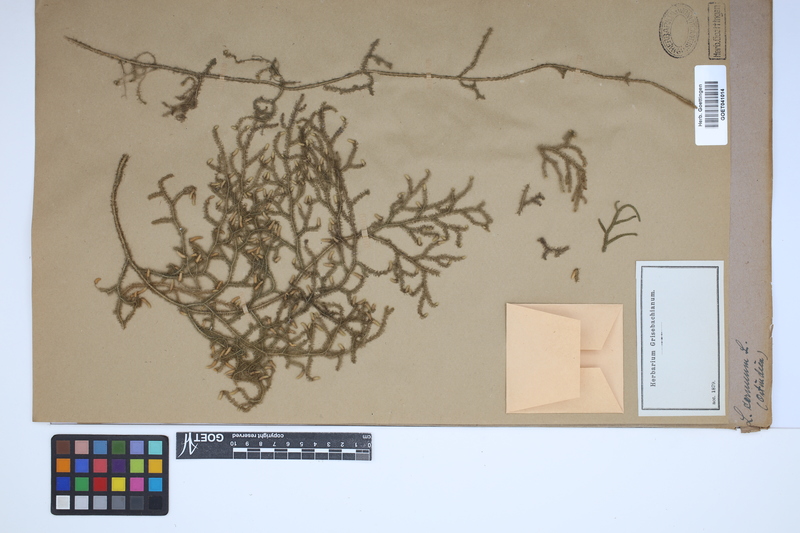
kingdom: Plantae
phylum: Tracheophyta
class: Lycopodiopsida
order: Lycopodiales
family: Lycopodiaceae
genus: Palhinhaea
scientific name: Palhinhaea cernua
